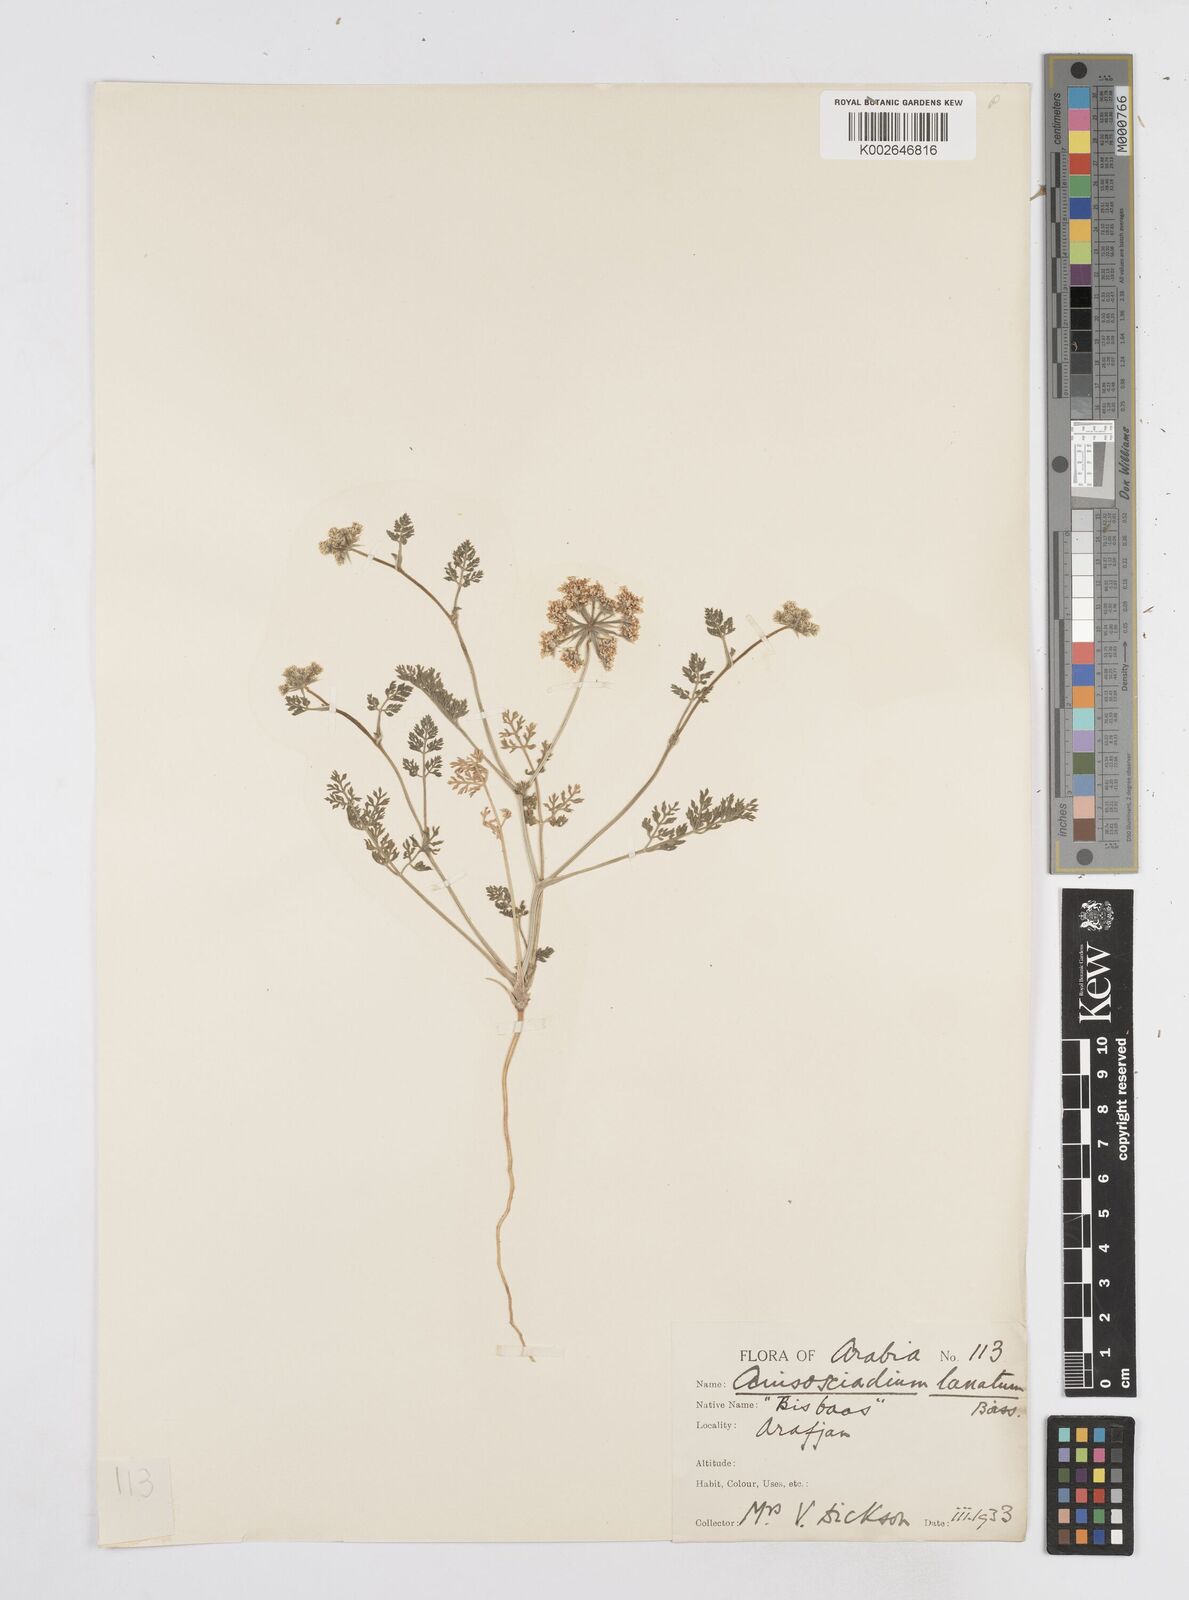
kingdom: Plantae
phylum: Tracheophyta
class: Magnoliopsida
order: Apiales
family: Apiaceae
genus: Anisosciadium
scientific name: Anisosciadium lanatum
